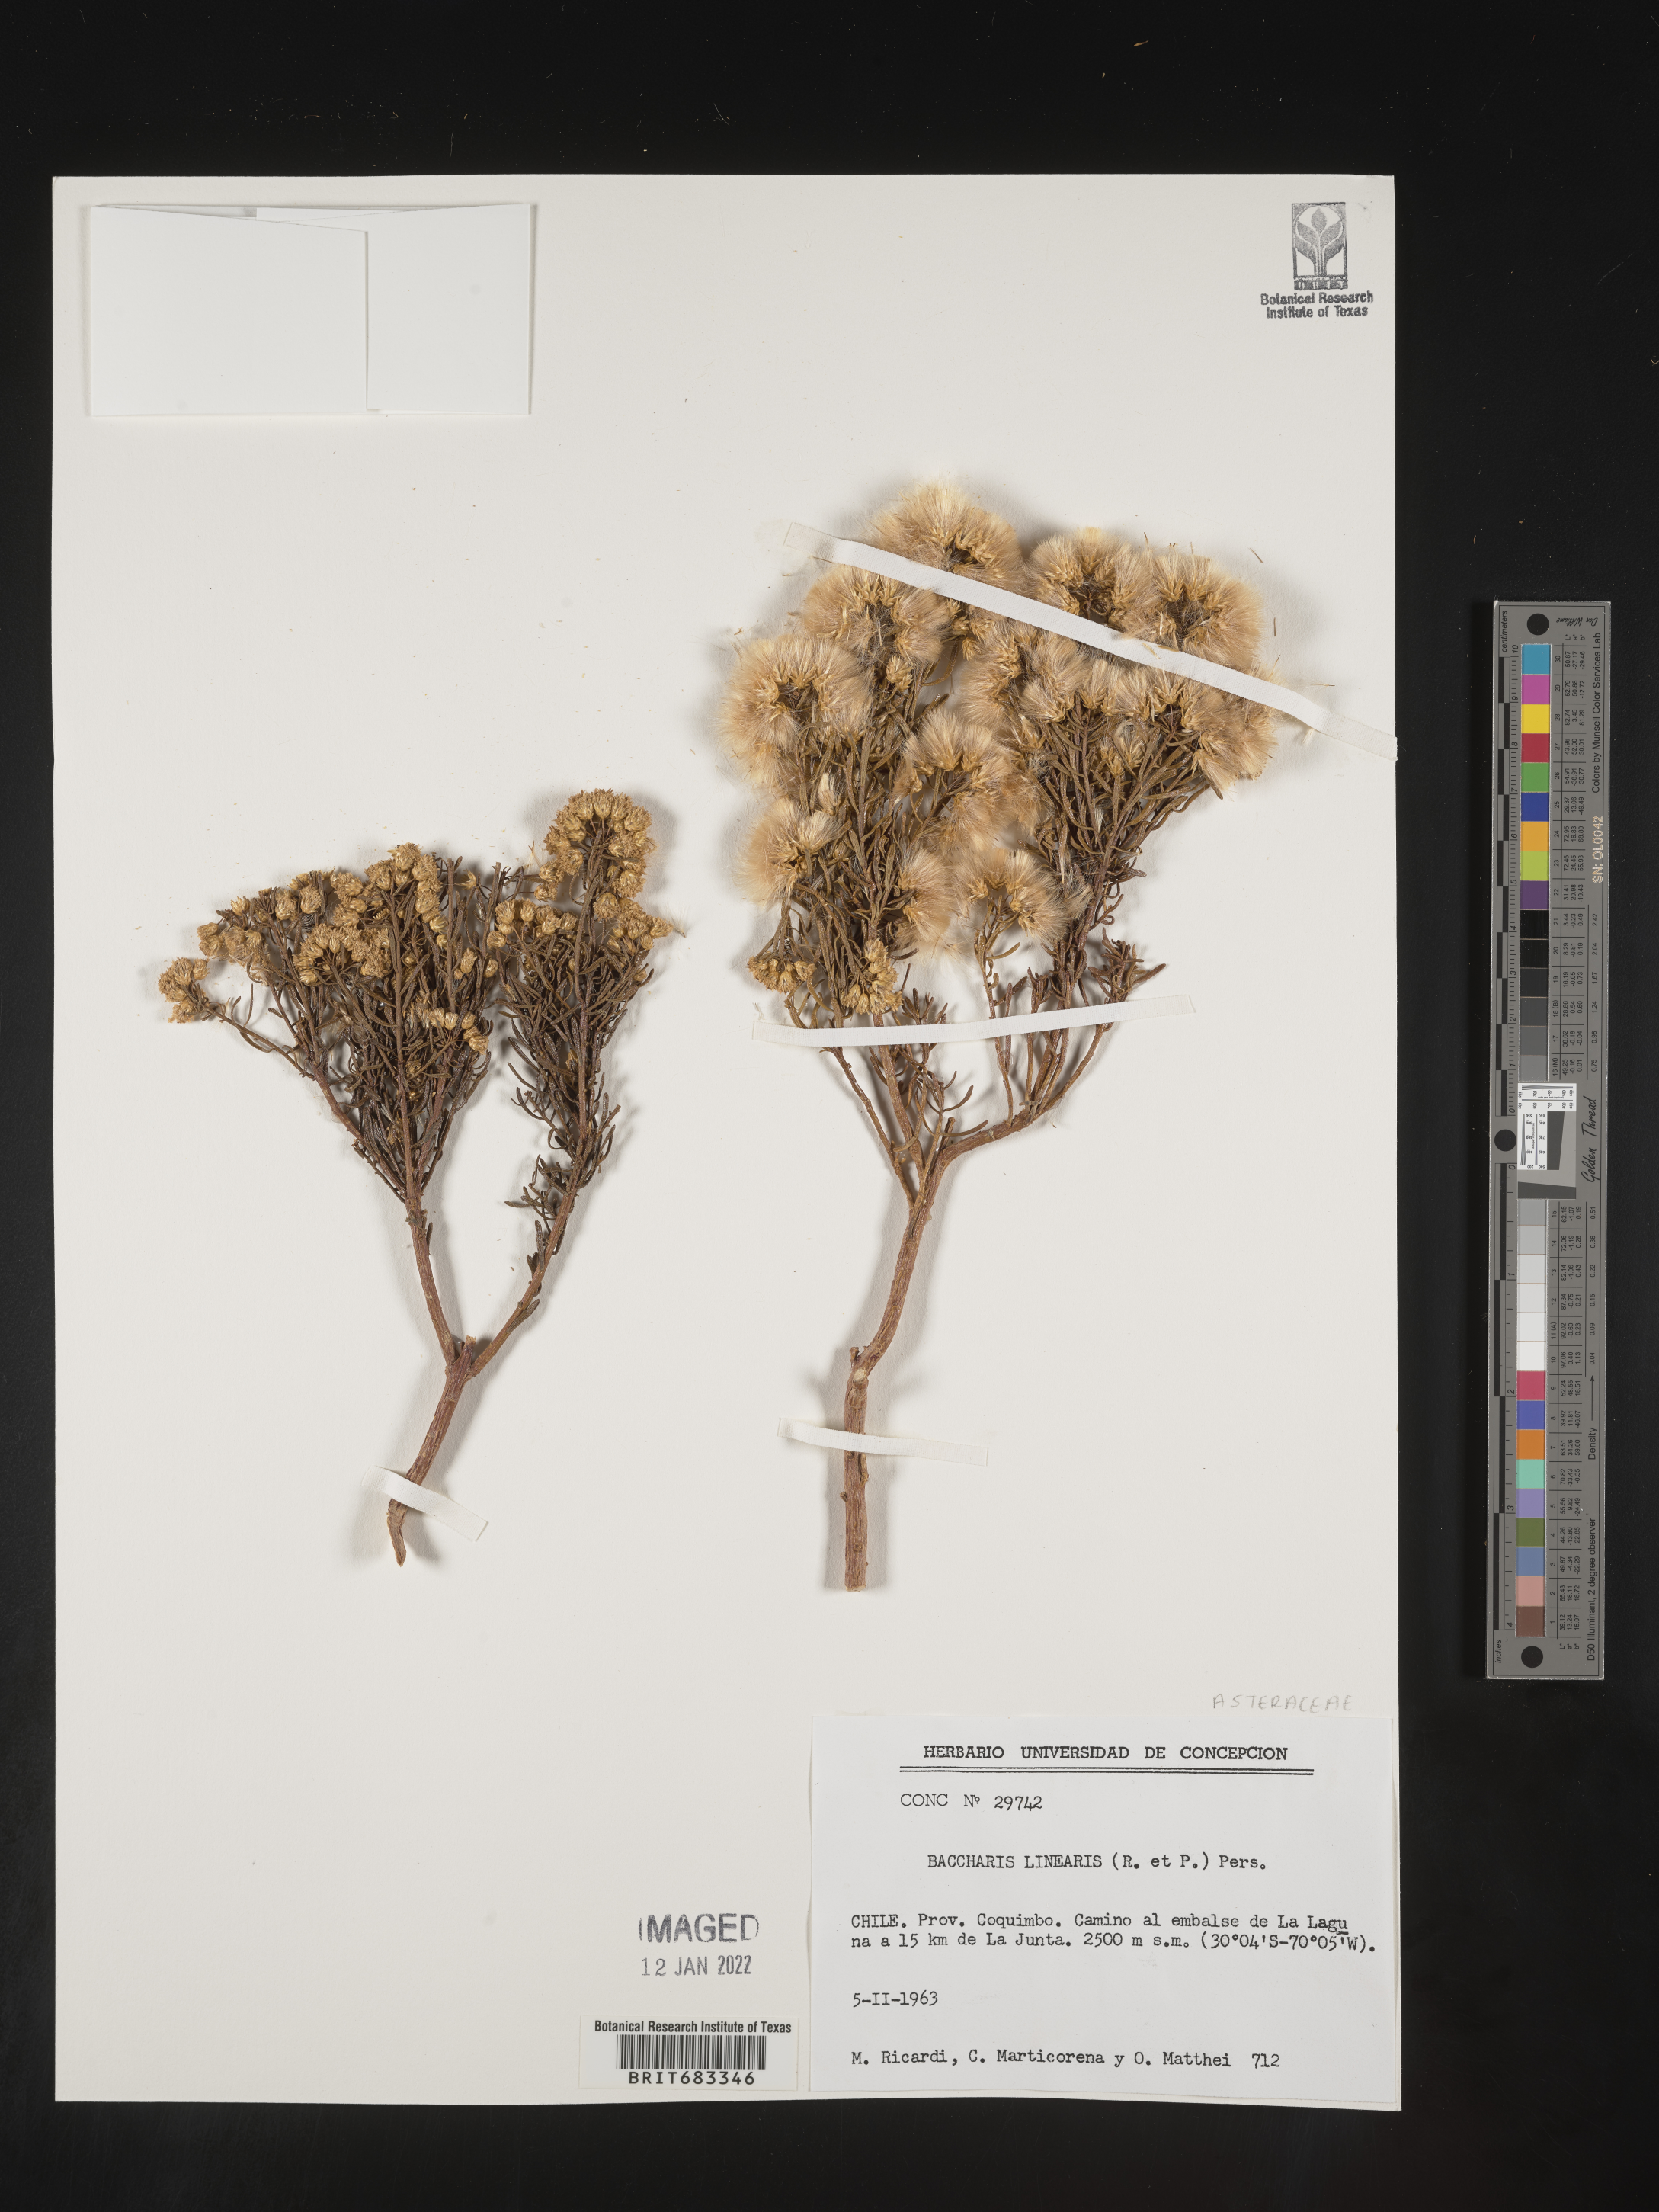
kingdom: Plantae
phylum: Tracheophyta
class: Magnoliopsida
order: Asterales
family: Asteraceae
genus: Baccharis
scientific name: Baccharis
